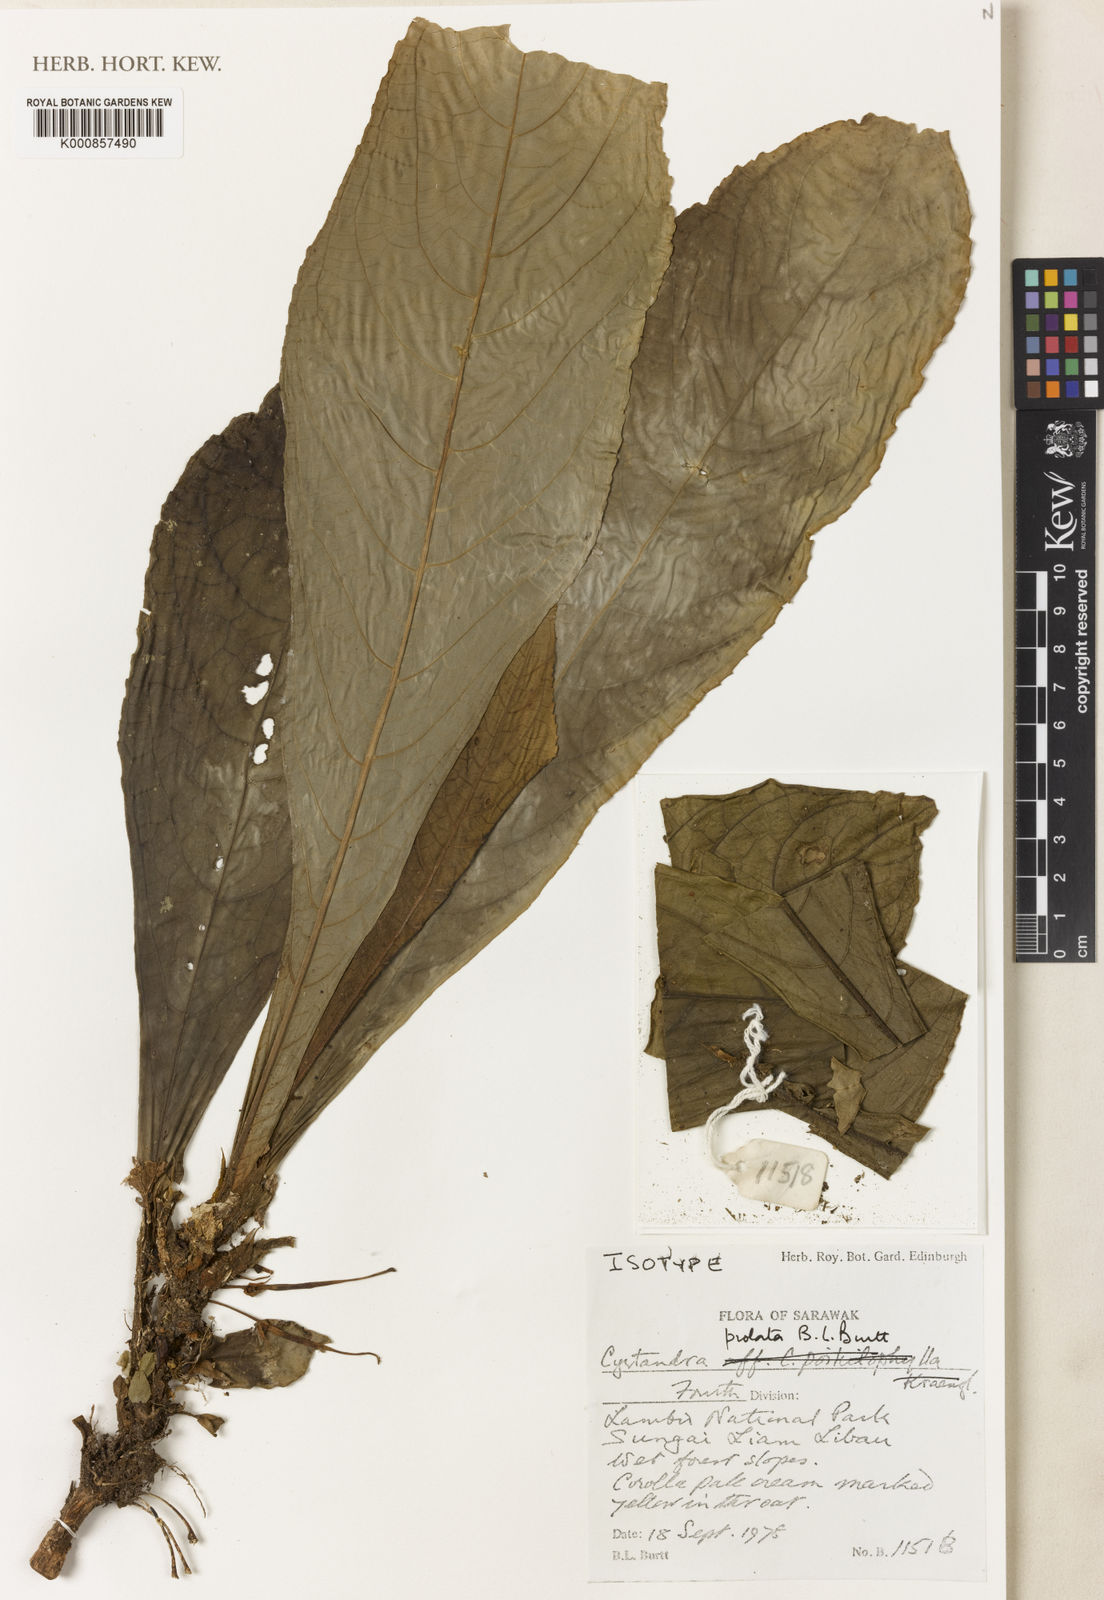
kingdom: Plantae
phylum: Tracheophyta
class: Magnoliopsida
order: Lamiales
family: Gesneriaceae
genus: Cyrtandra
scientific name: Cyrtandra longicarpa
